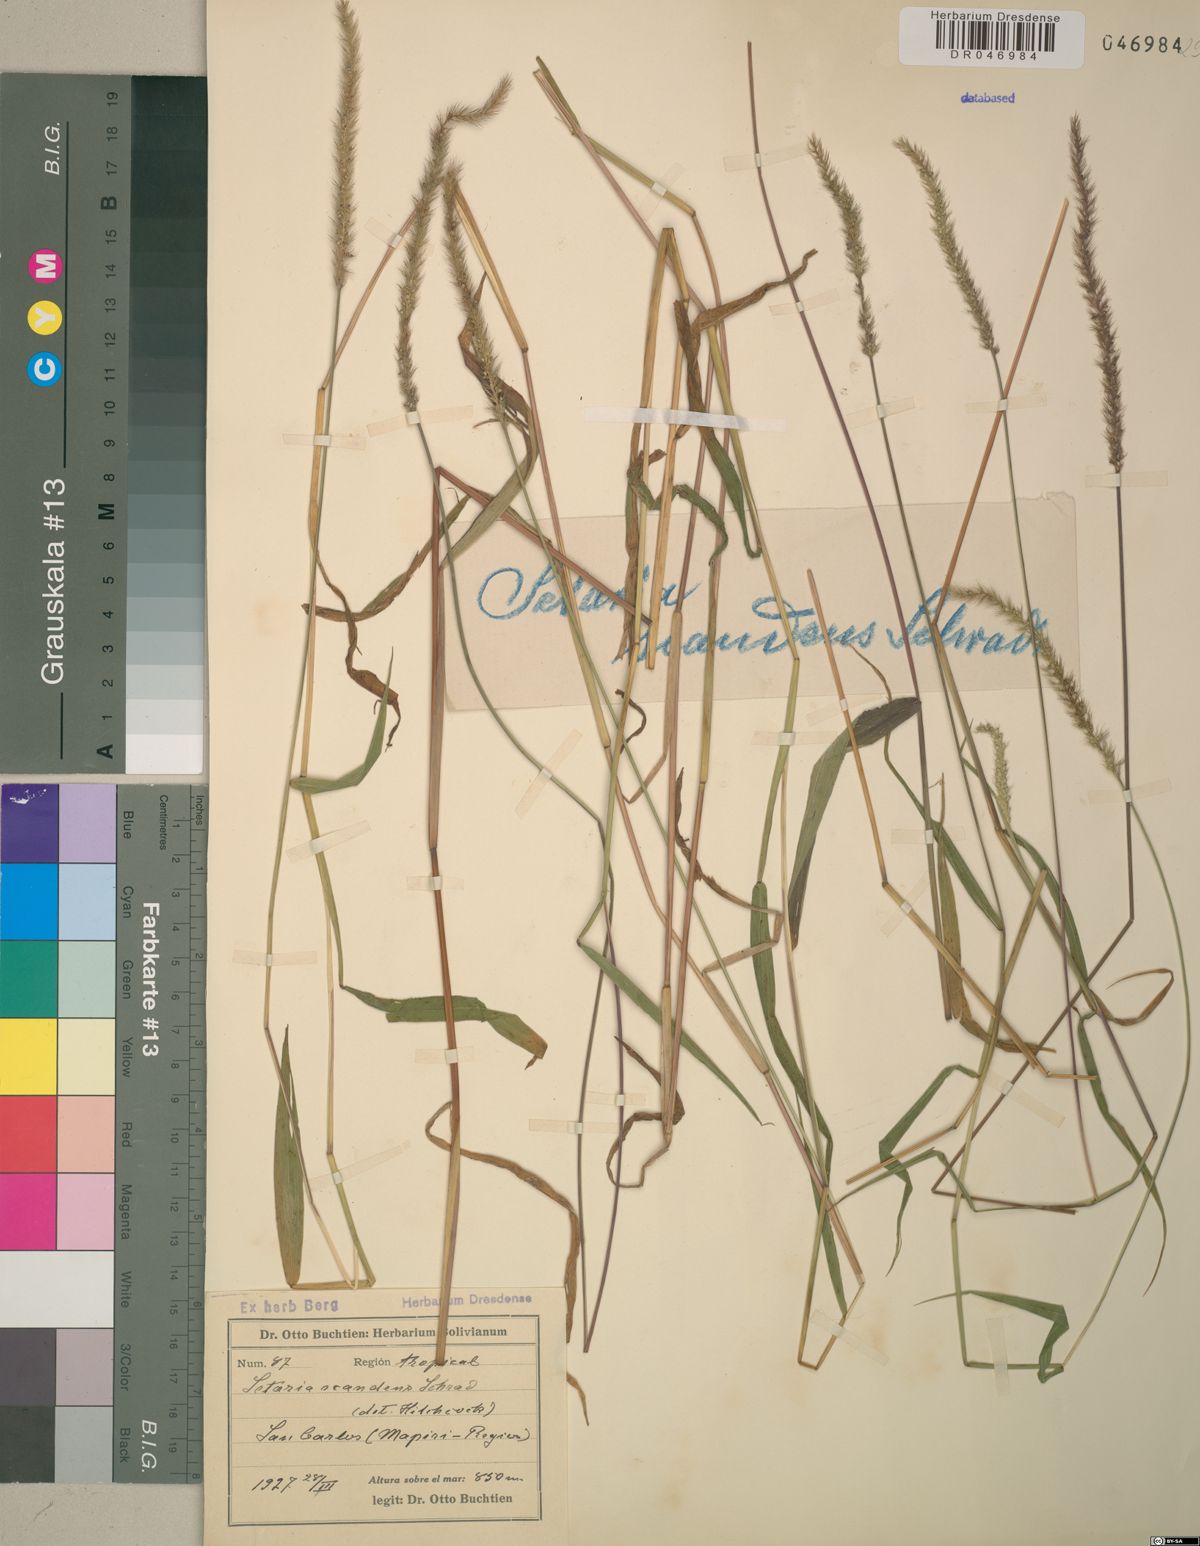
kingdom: Plantae
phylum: Tracheophyta
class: Liliopsida
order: Poales
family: Poaceae
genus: Setaria
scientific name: Setaria scandens
